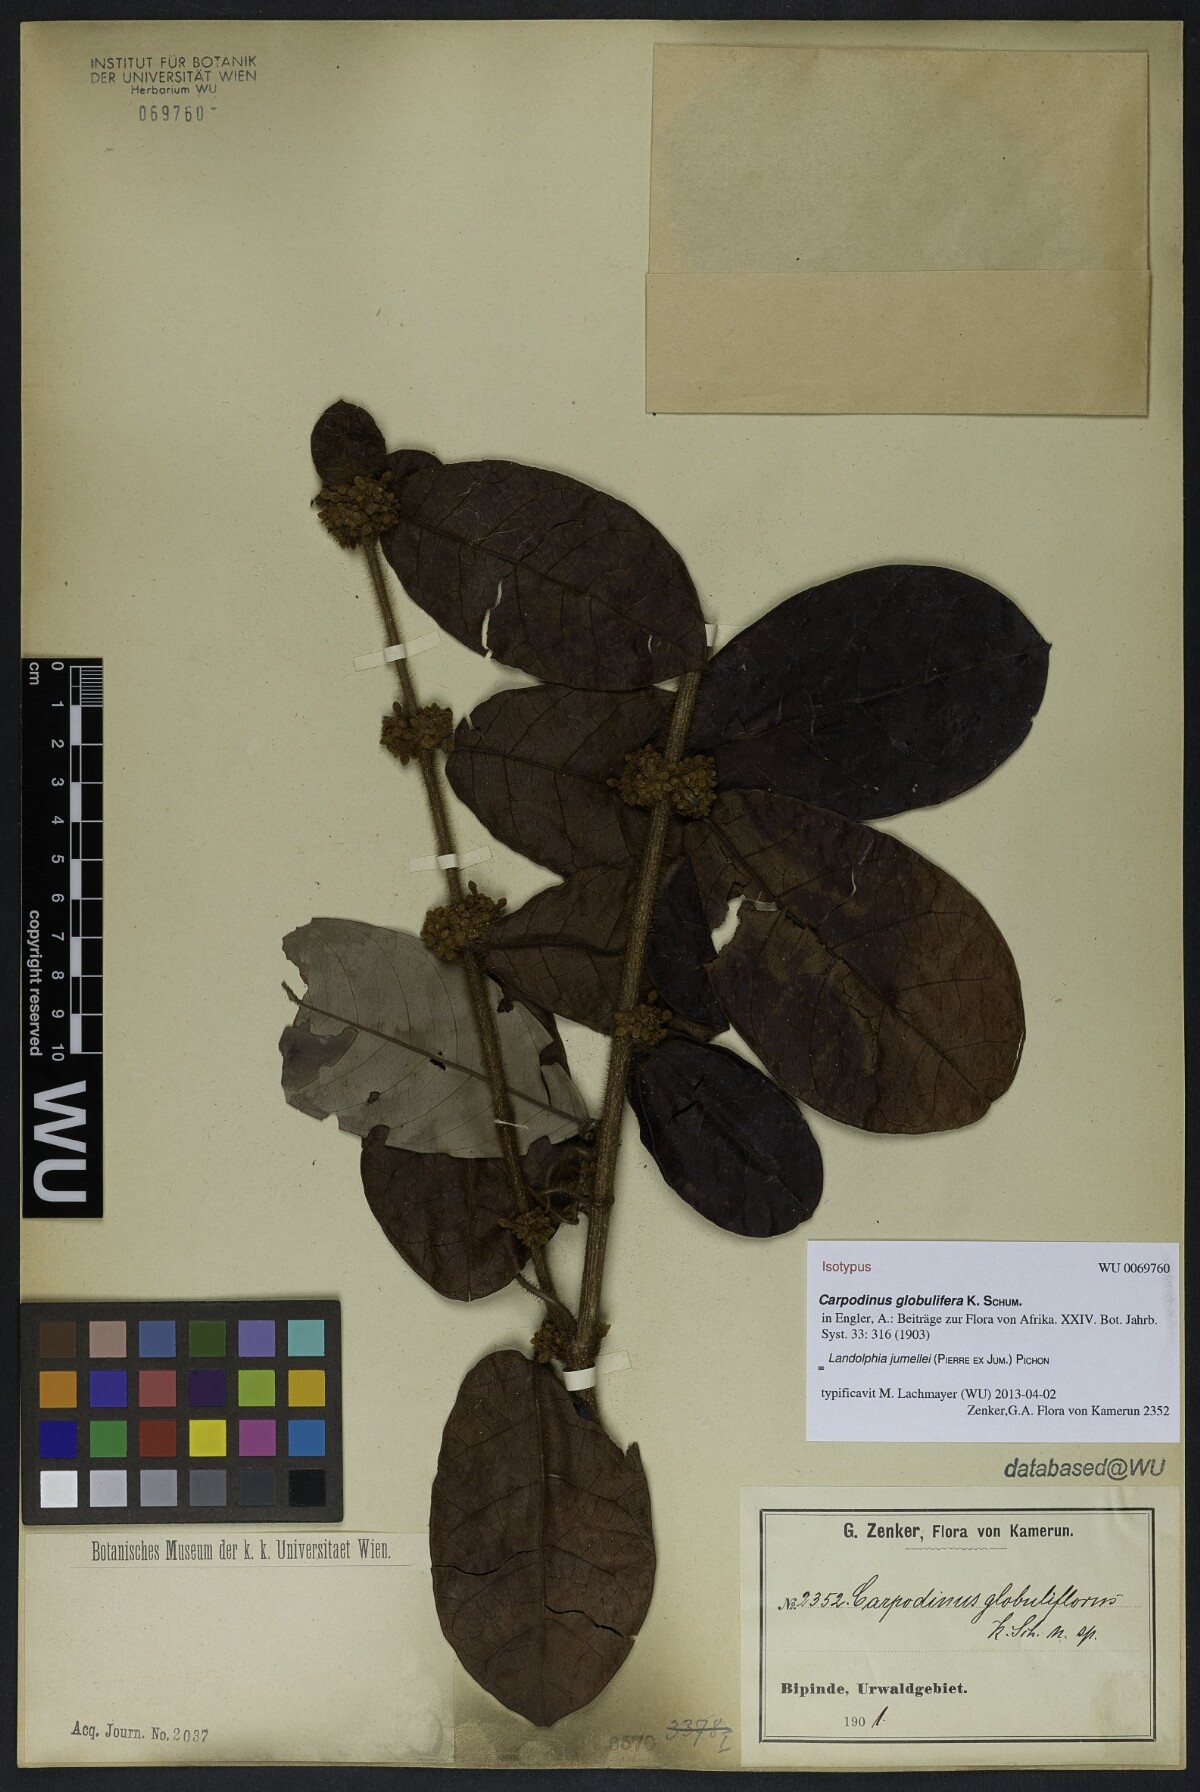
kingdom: Plantae
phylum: Tracheophyta
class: Magnoliopsida
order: Gentianales
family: Apocynaceae
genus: Landolphia
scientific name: Landolphia jumellei
